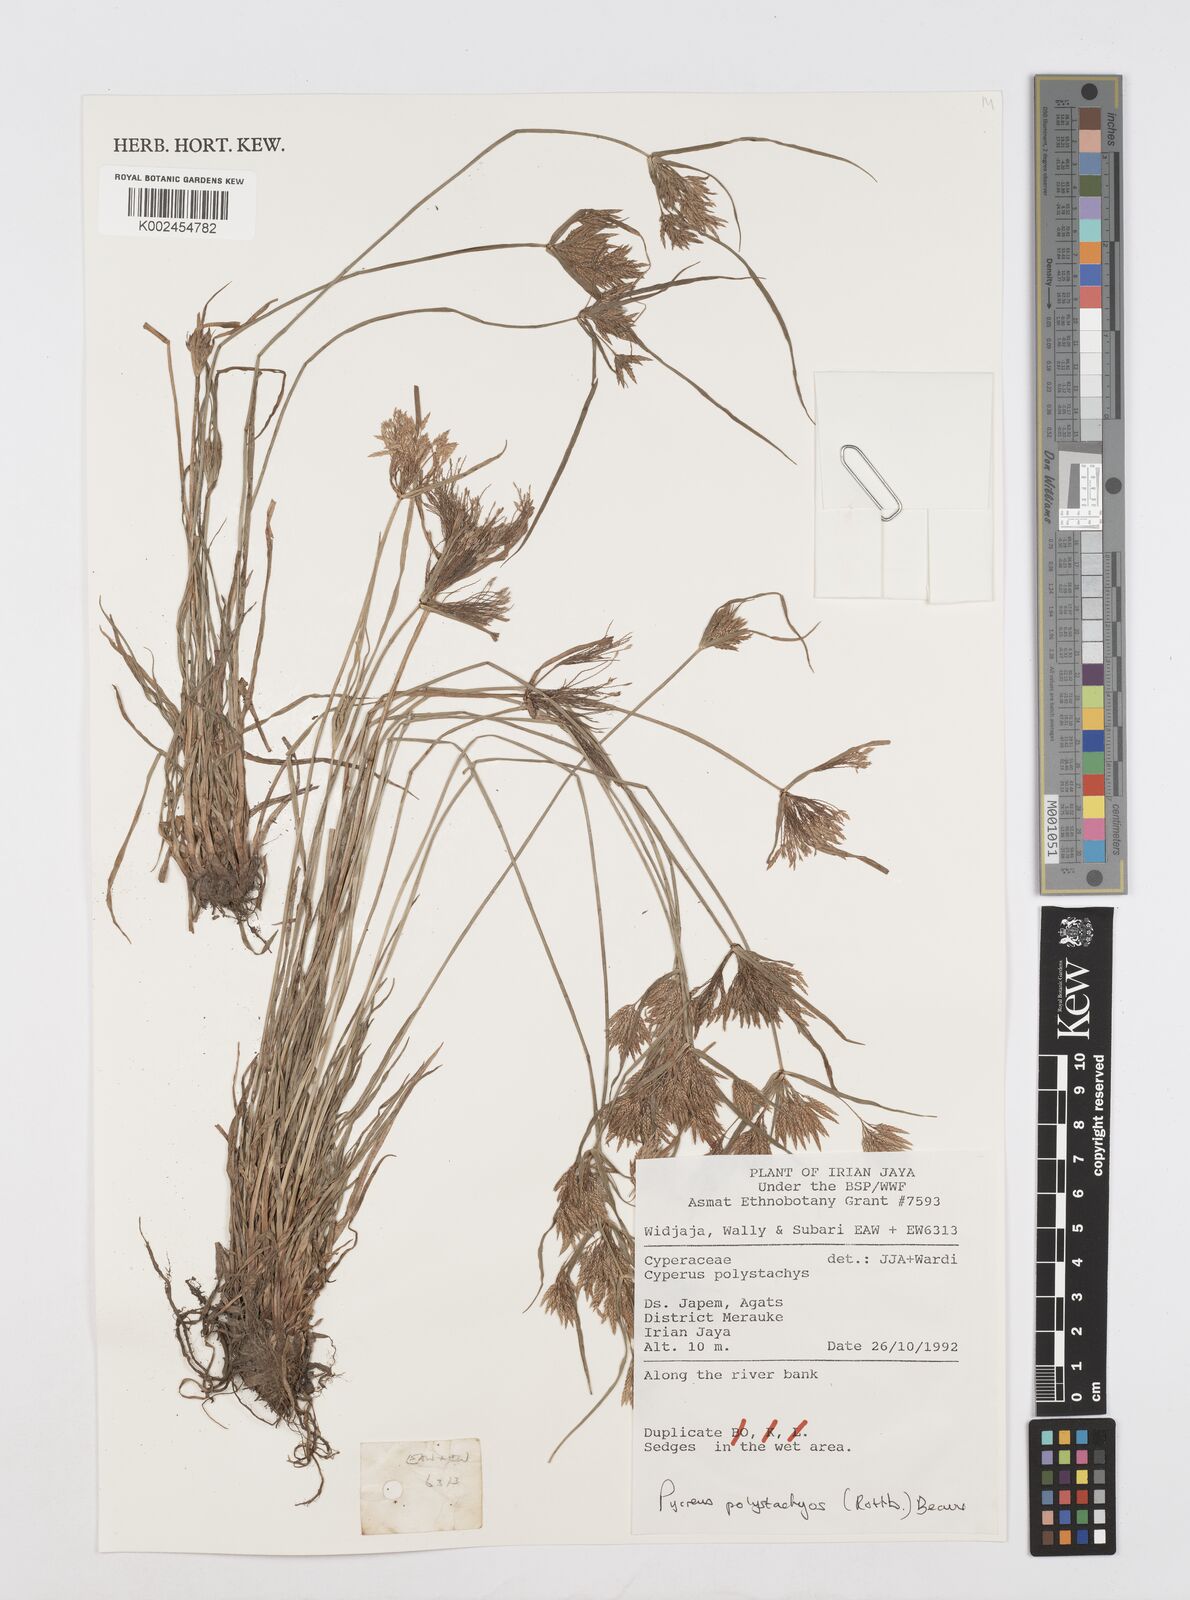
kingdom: Plantae
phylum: Tracheophyta
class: Liliopsida
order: Poales
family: Cyperaceae
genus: Cyperus
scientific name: Cyperus polystachyos
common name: Bunchy flat sedge
